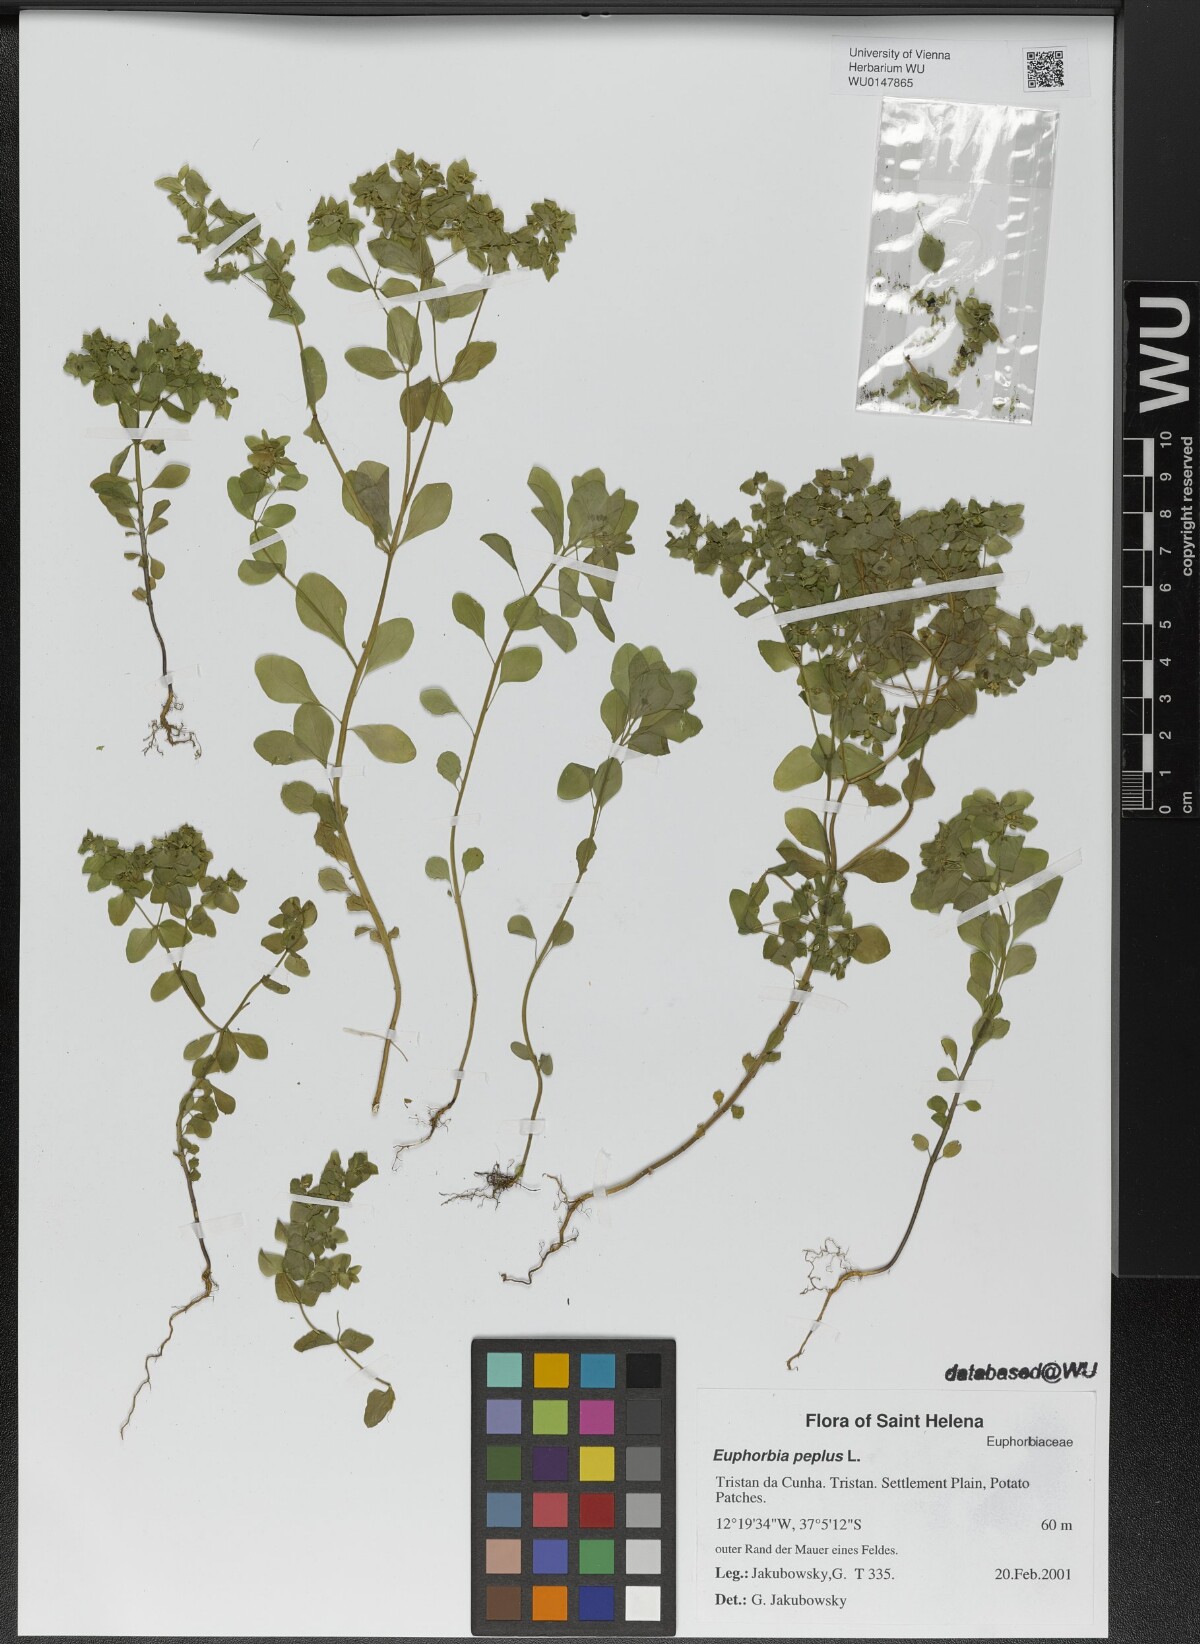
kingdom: Plantae
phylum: Tracheophyta
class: Magnoliopsida
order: Malpighiales
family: Euphorbiaceae
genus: Euphorbia
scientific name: Euphorbia peplus
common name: Petty spurge
